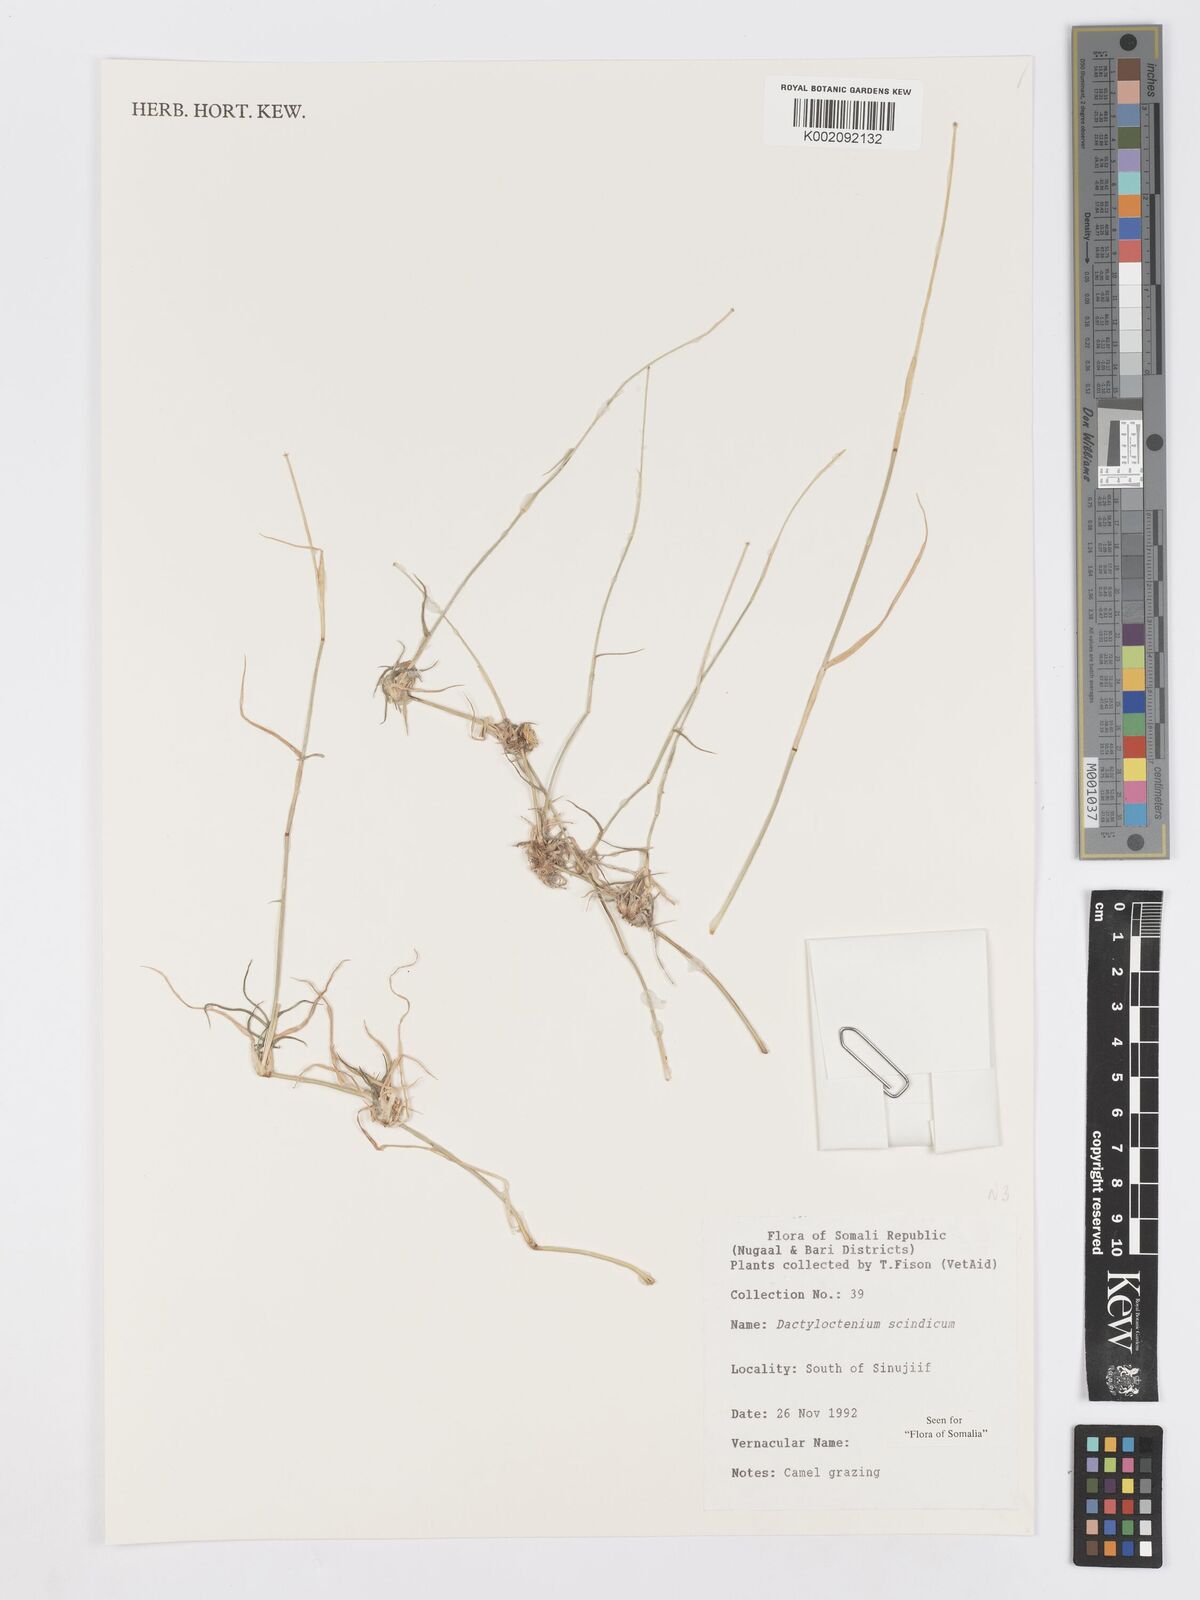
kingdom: Plantae
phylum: Tracheophyta
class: Liliopsida
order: Poales
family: Poaceae
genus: Dactyloctenium
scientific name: Dactyloctenium scindicum
